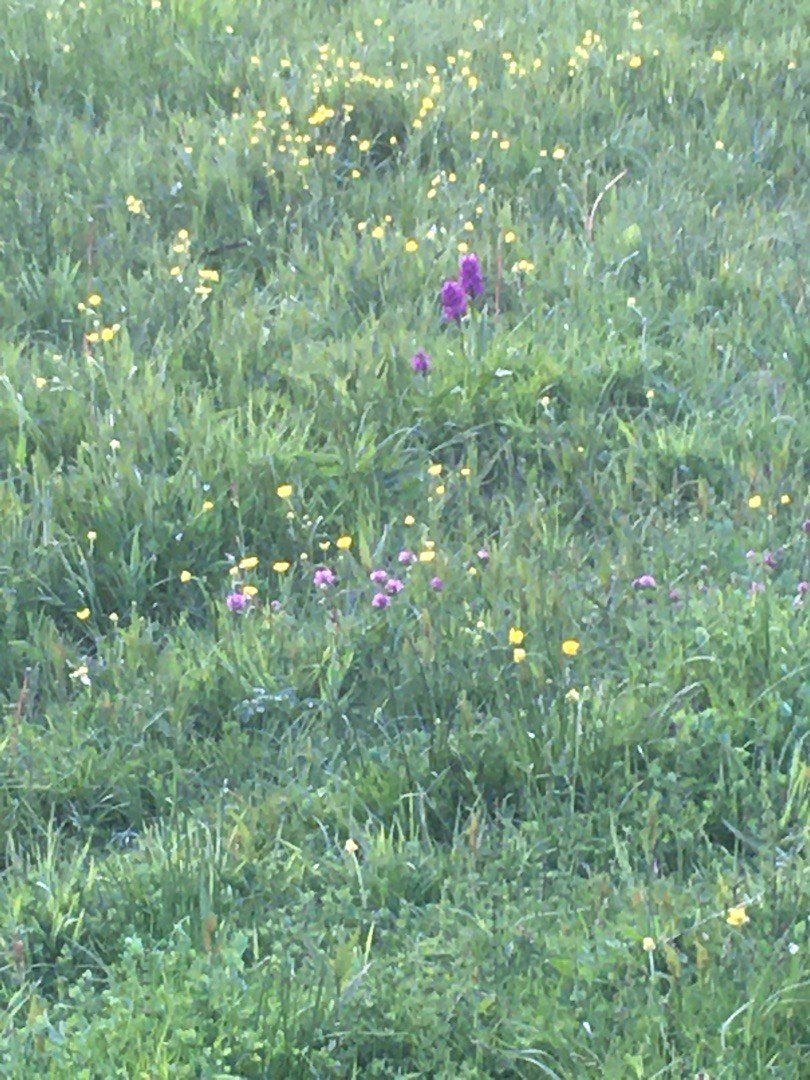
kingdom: Plantae
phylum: Tracheophyta
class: Liliopsida
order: Asparagales
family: Orchidaceae
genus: Dactylorhiza
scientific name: Dactylorhiza majalis
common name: Maj-gøgeurt
